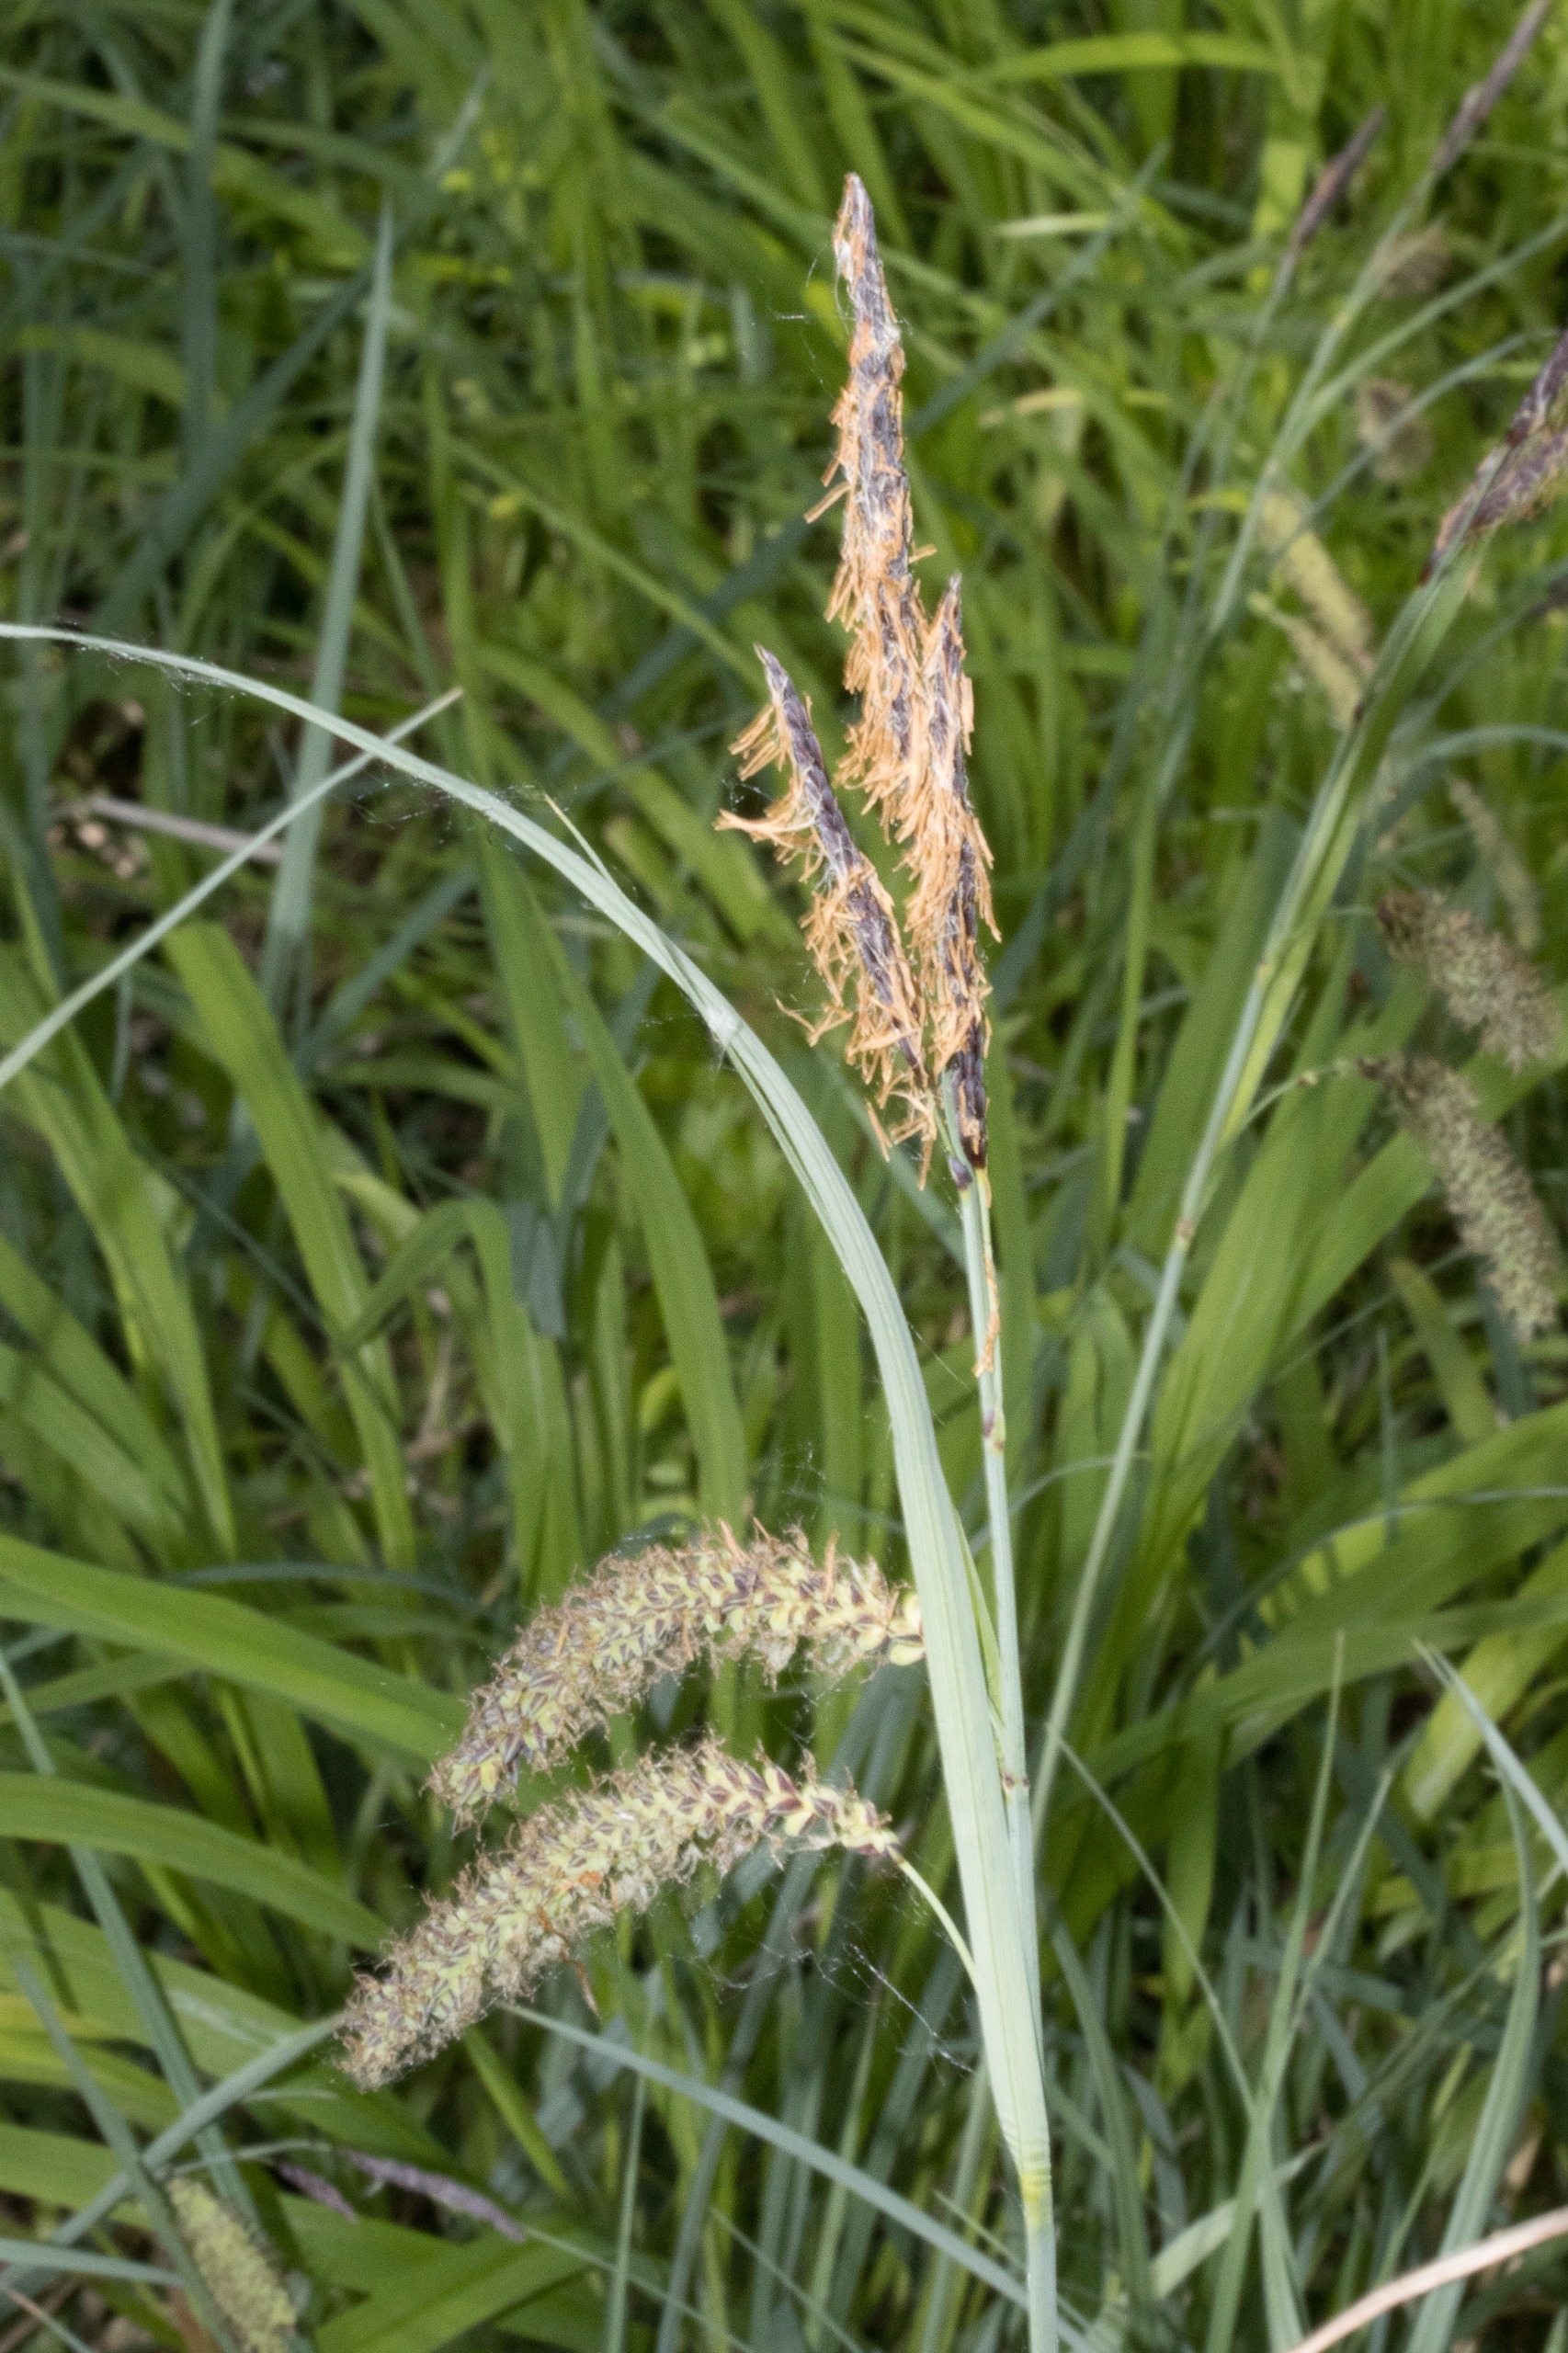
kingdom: Plantae
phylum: Tracheophyta
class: Liliopsida
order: Poales
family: Cyperaceae
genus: Carex
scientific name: Carex flacca
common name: Blågrøn star
